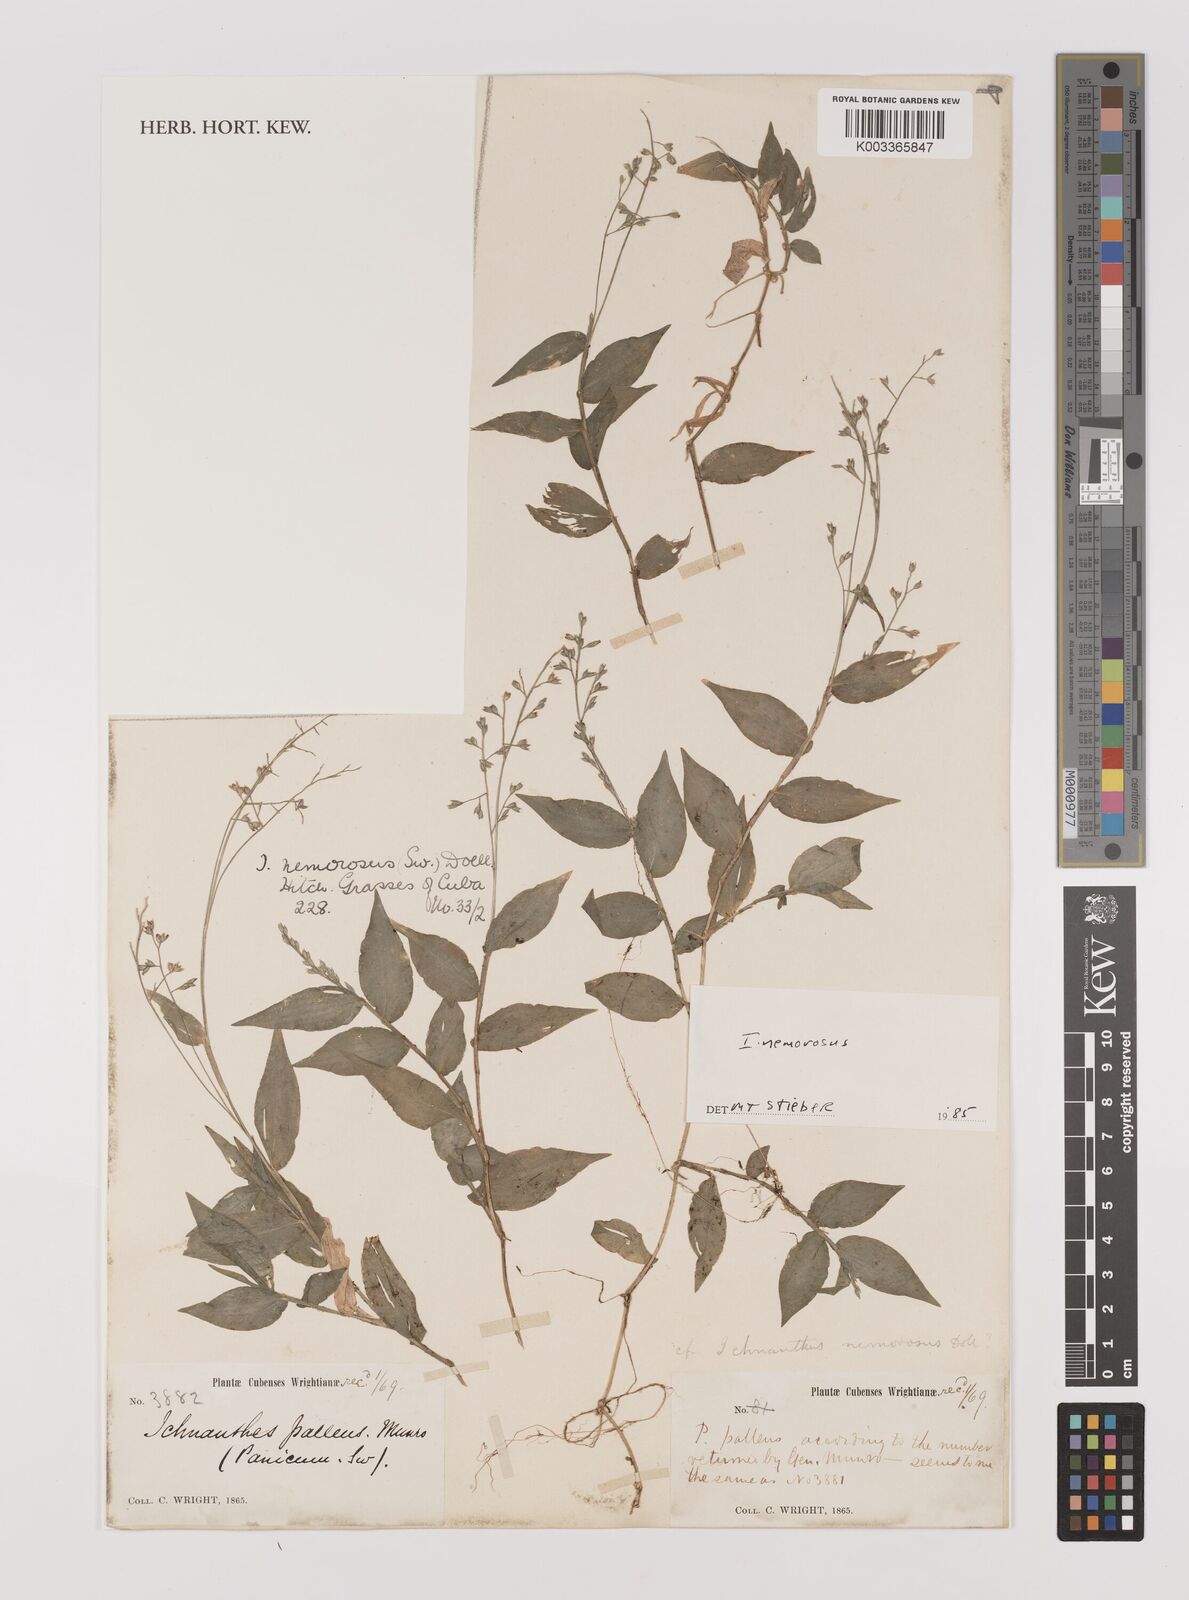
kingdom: Plantae
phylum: Tracheophyta
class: Liliopsida
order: Poales
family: Poaceae
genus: Ichnanthus
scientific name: Ichnanthus nemorosus
